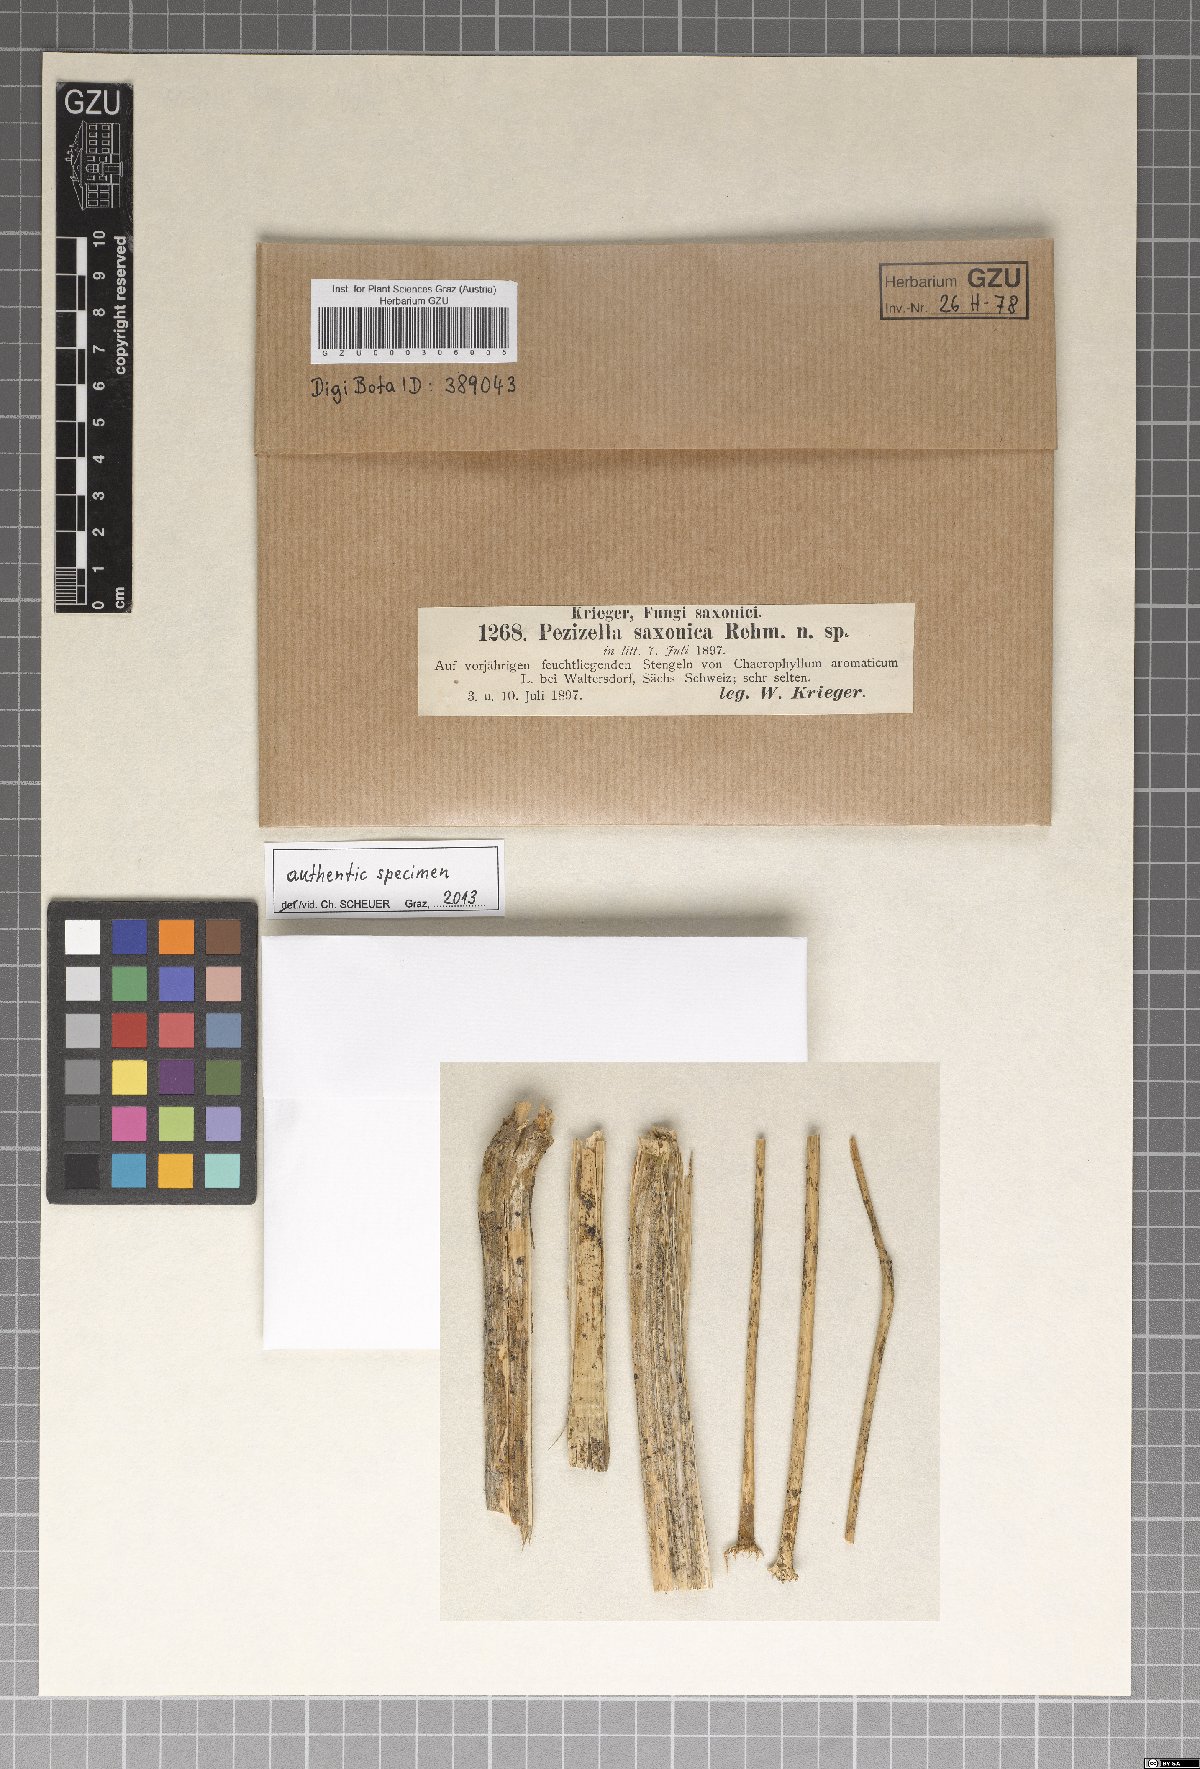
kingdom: Fungi
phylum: Ascomycota
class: Leotiomycetes
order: Helotiales
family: Hyaloscyphaceae
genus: Urceolella
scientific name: Urceolella saxonica
